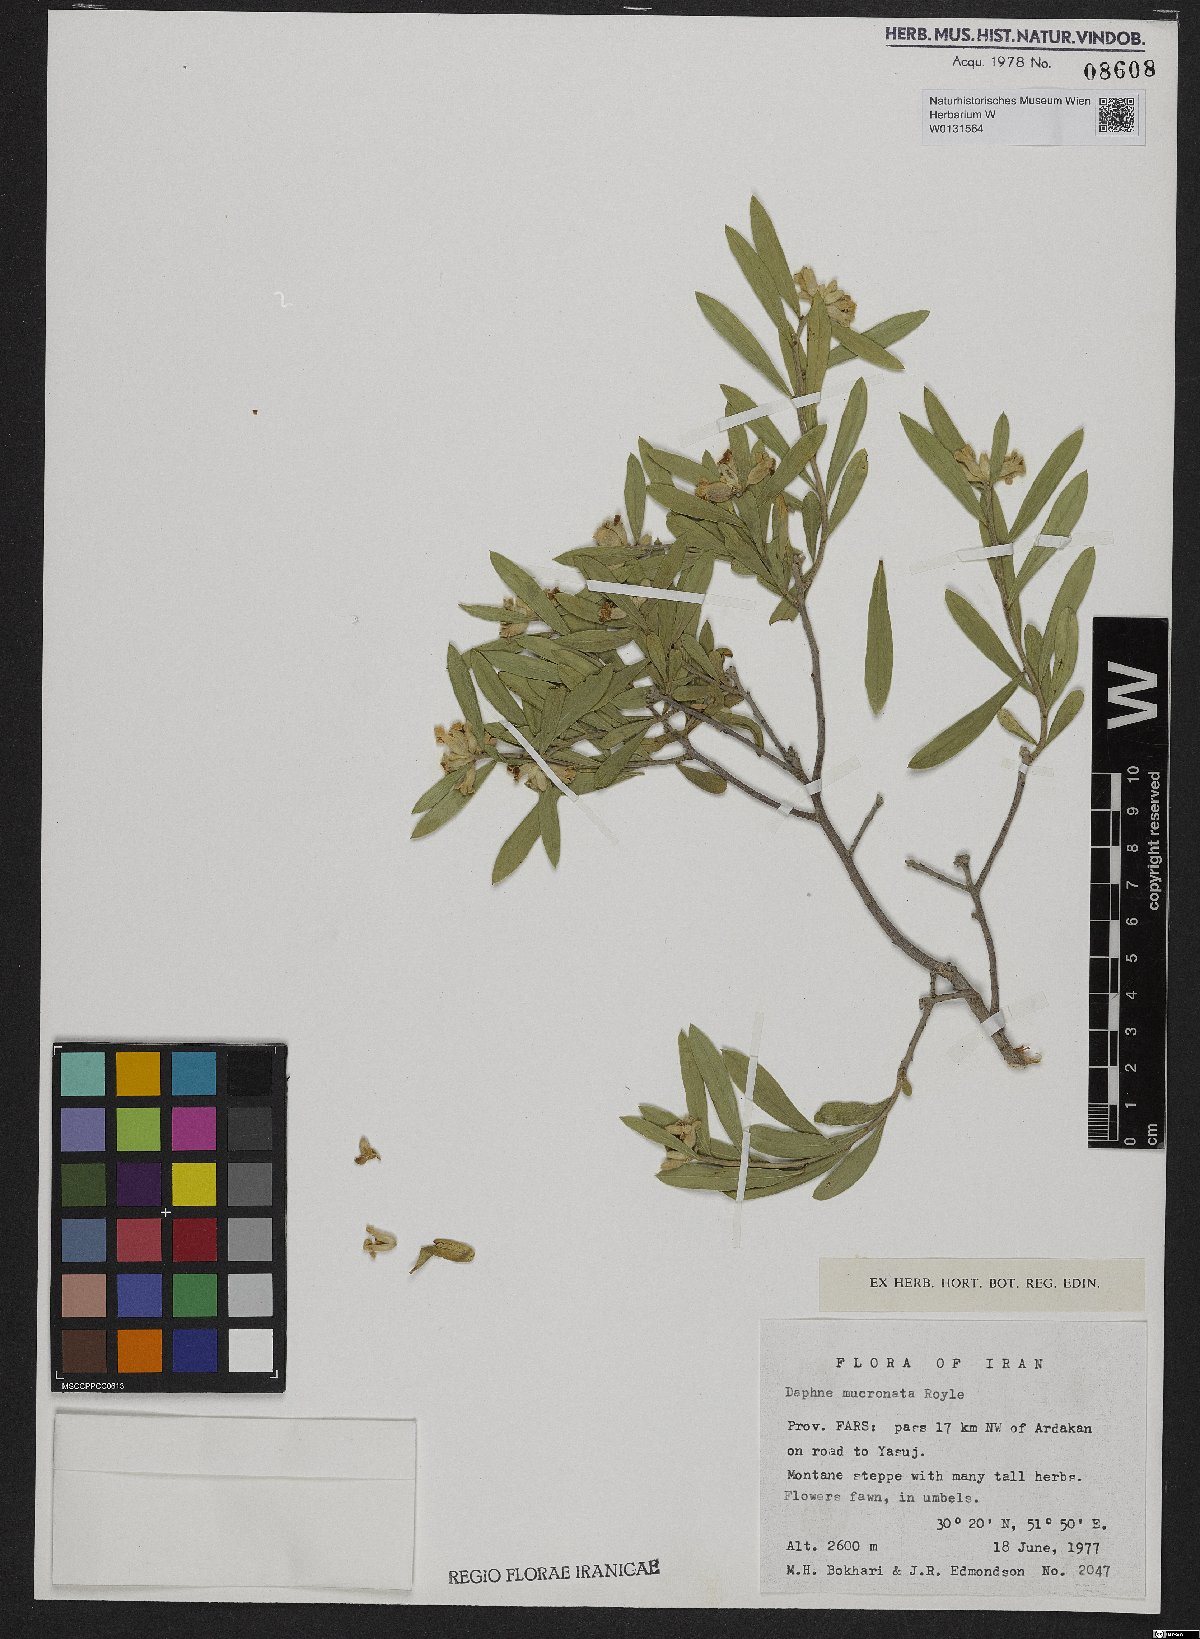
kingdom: Plantae
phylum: Tracheophyta
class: Magnoliopsida
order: Malvales
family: Thymelaeaceae
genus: Daphne
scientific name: Daphne mucronata
